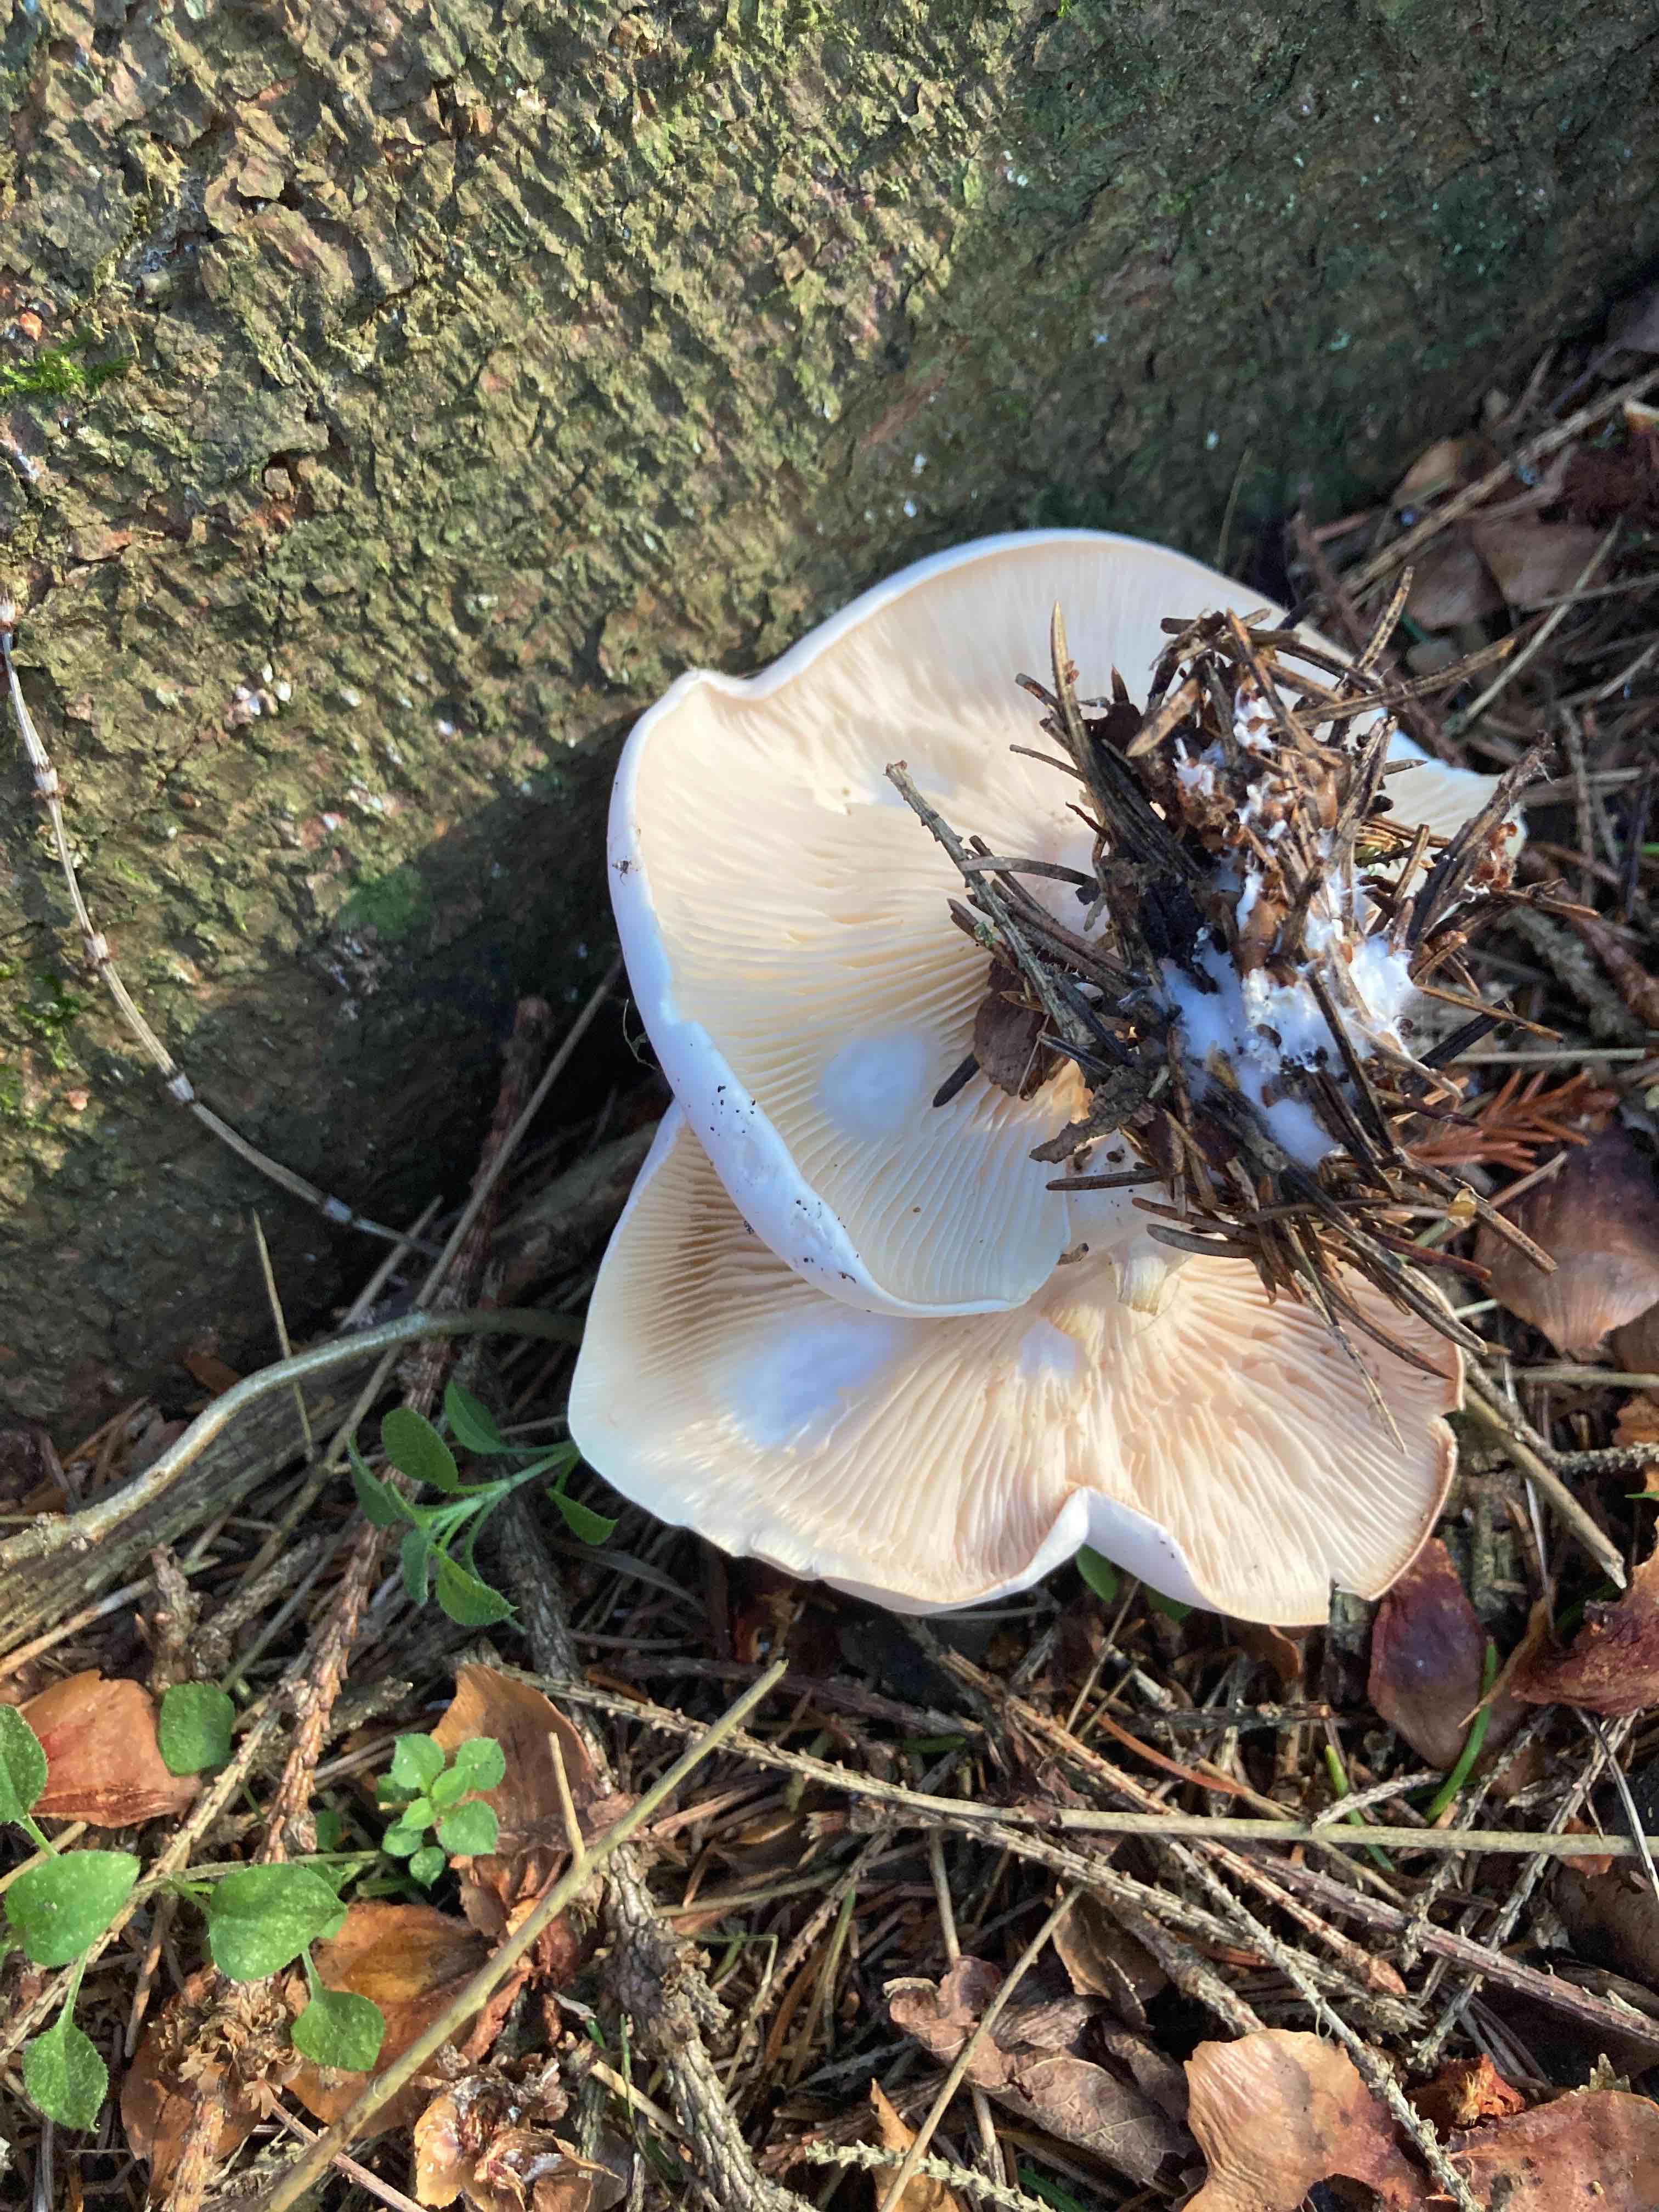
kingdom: Fungi
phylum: Basidiomycota
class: Agaricomycetes
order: Agaricales
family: Entolomataceae
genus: Clitopilus
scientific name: Clitopilus prunulus
